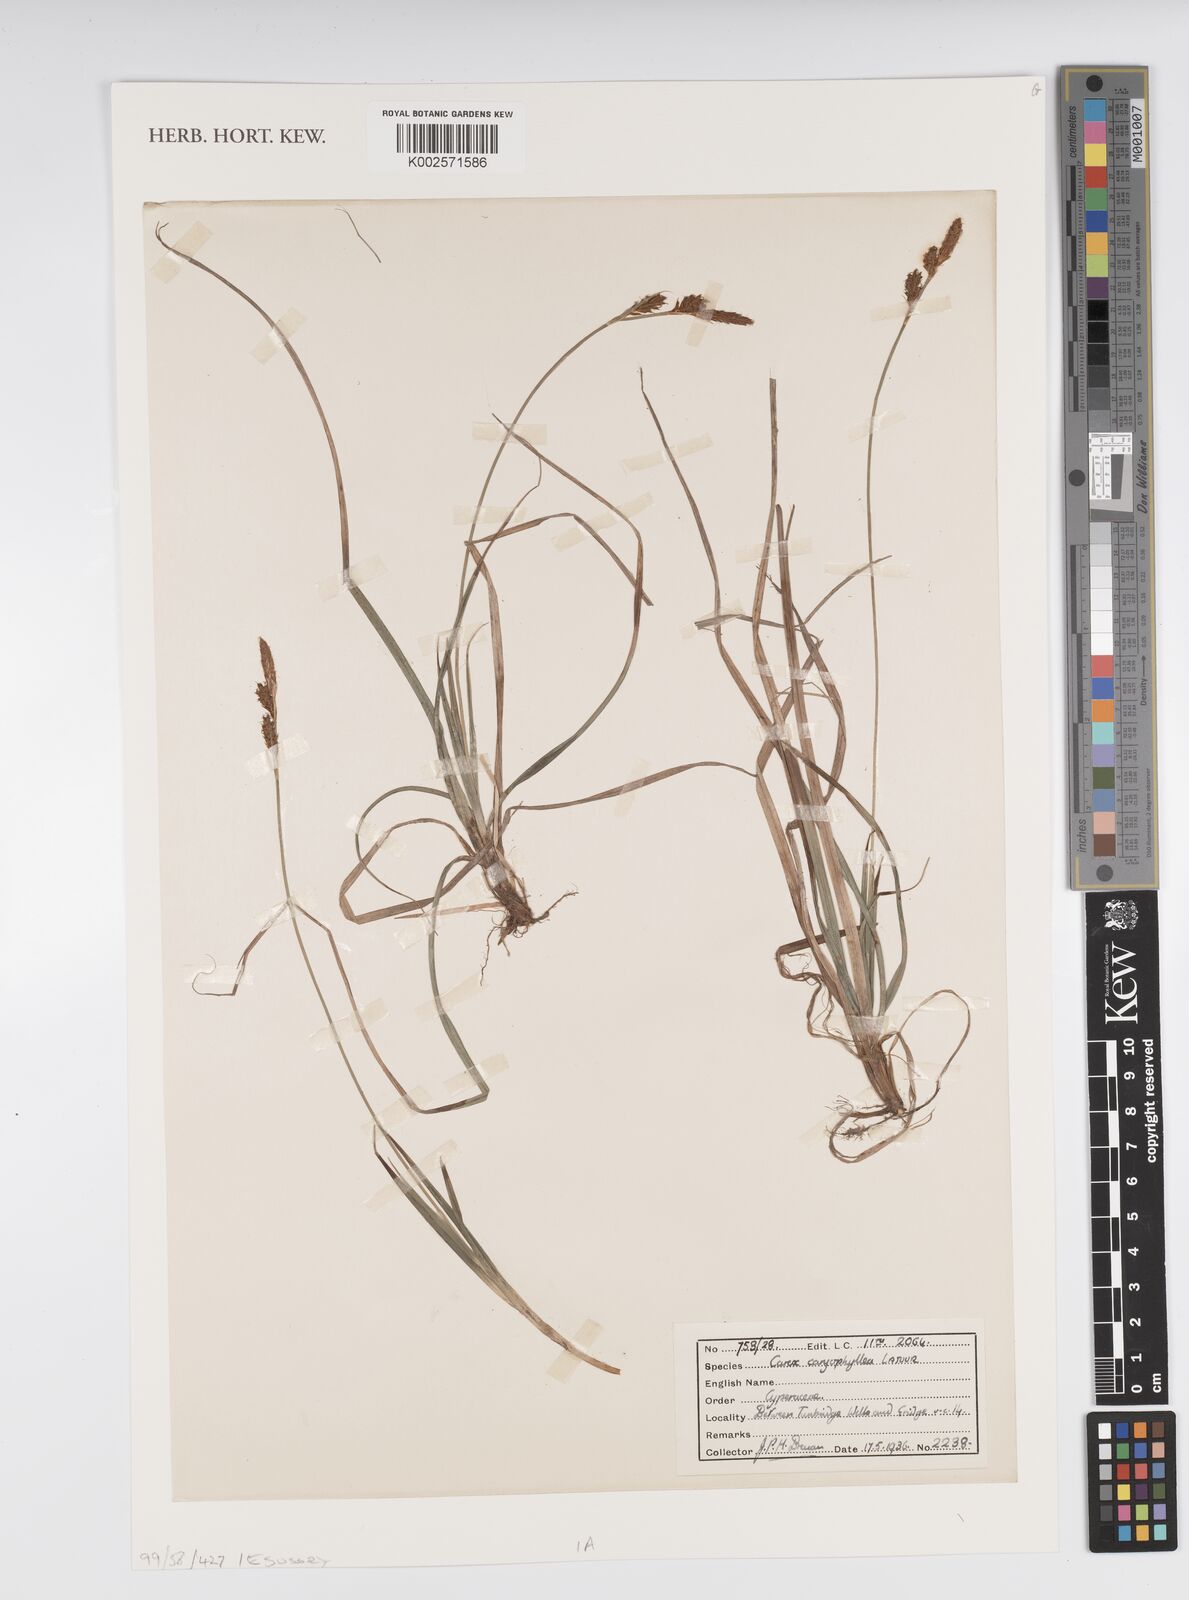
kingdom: Plantae
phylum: Tracheophyta
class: Liliopsida
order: Poales
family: Cyperaceae
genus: Carex
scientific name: Carex caryophyllea
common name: Spring sedge
